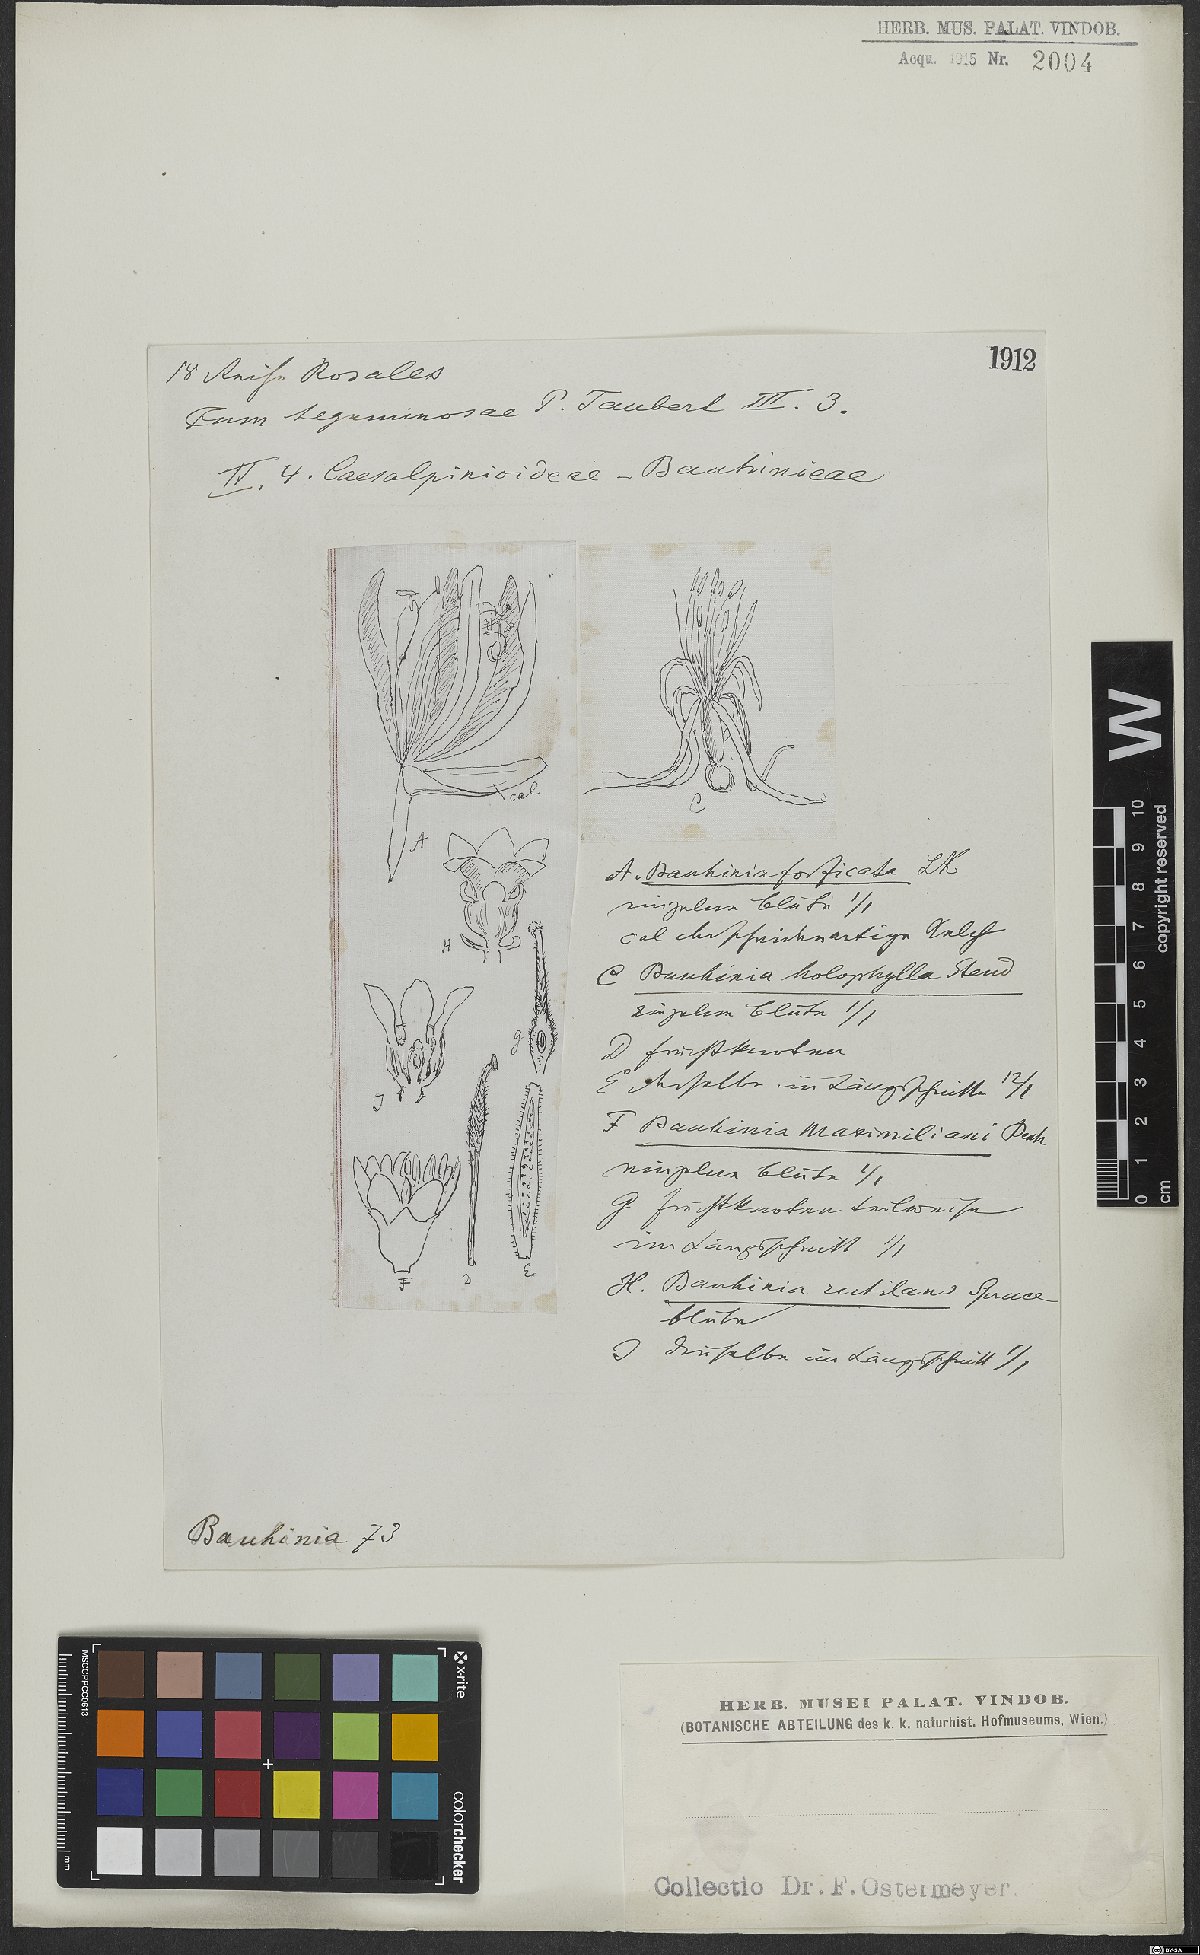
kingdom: Plantae
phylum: Tracheophyta
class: Magnoliopsida
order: Fabales
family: Fabaceae
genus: Bauhinia
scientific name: Bauhinia forficata
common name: Orchid tree
